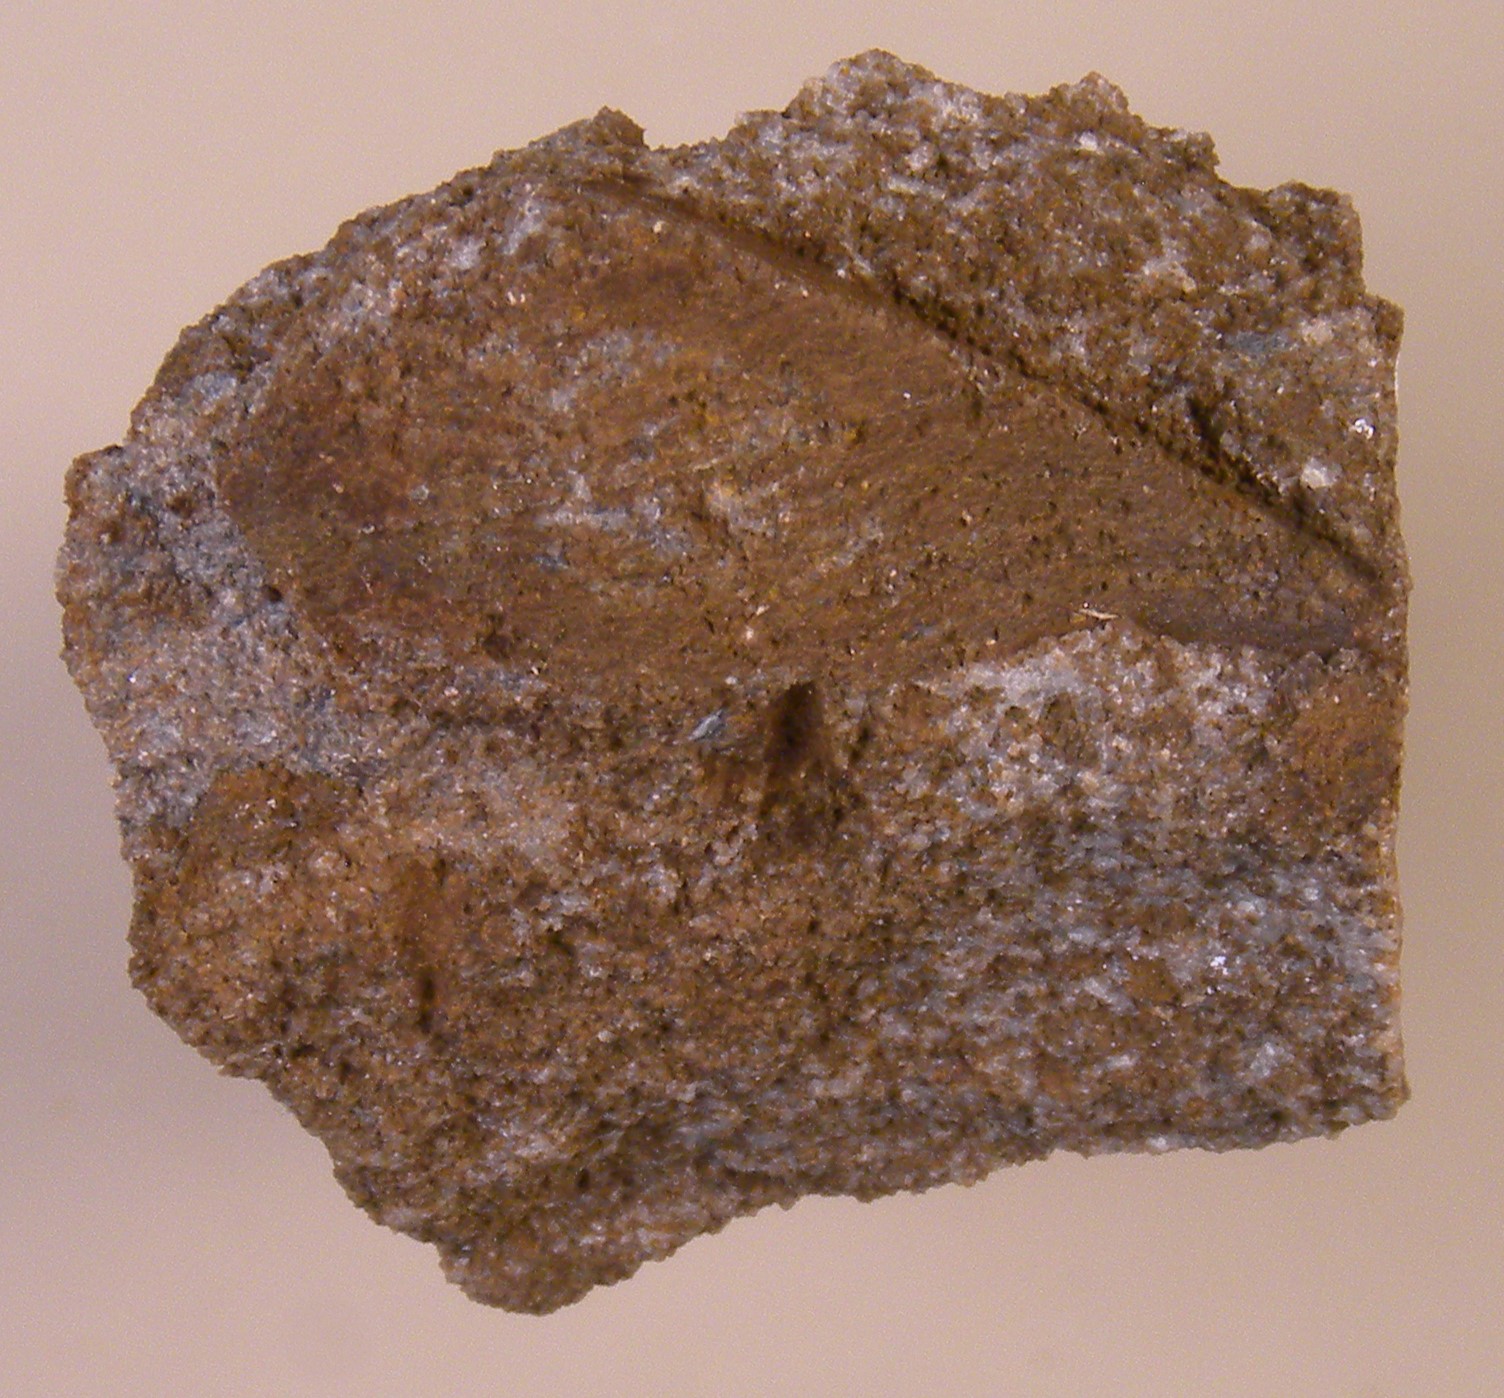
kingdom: Animalia
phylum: Mollusca
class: Bivalvia
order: Modiomorphida
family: Modiomorphidae
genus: Goniophora
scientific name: Goniophora
